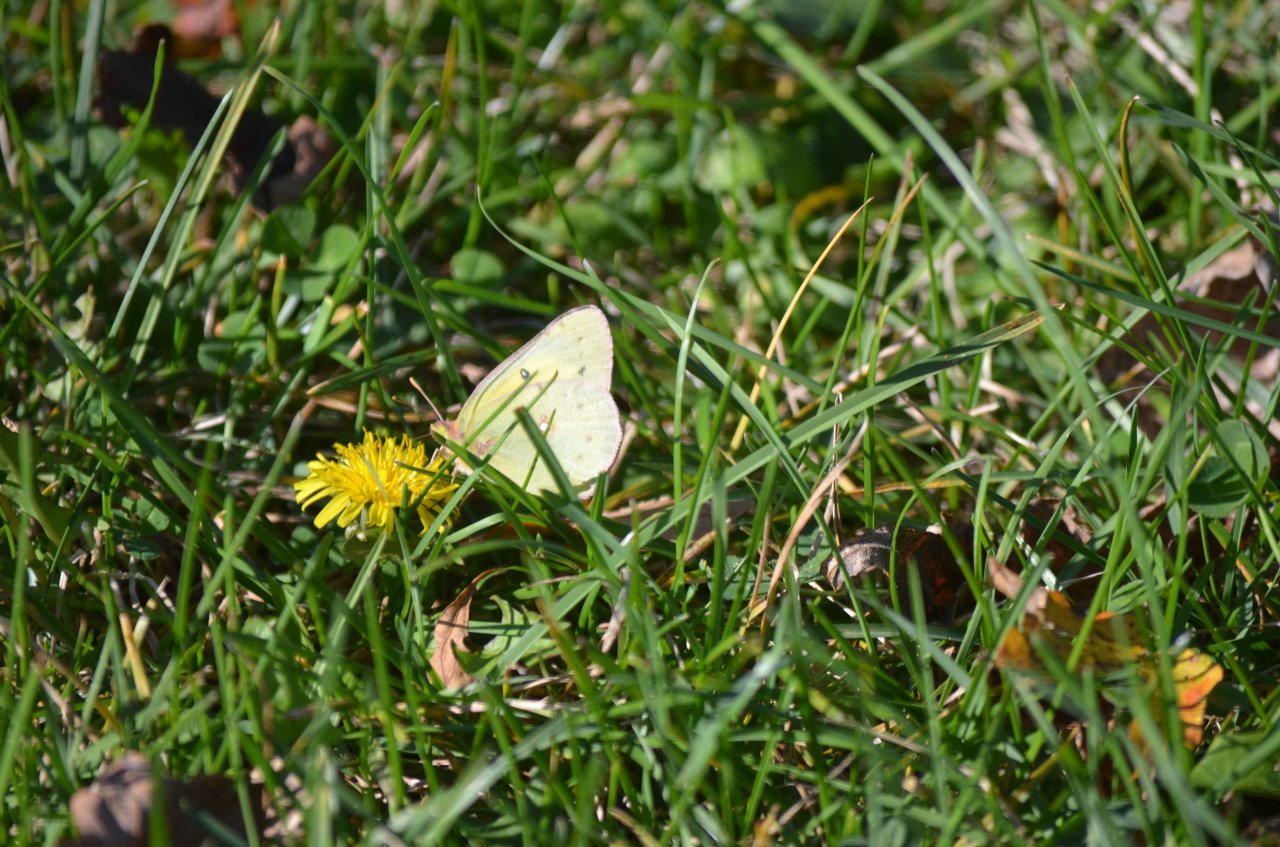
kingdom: Animalia
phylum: Arthropoda
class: Insecta
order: Lepidoptera
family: Pieridae
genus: Colias
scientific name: Colias philodice
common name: Clouded Sulphur
